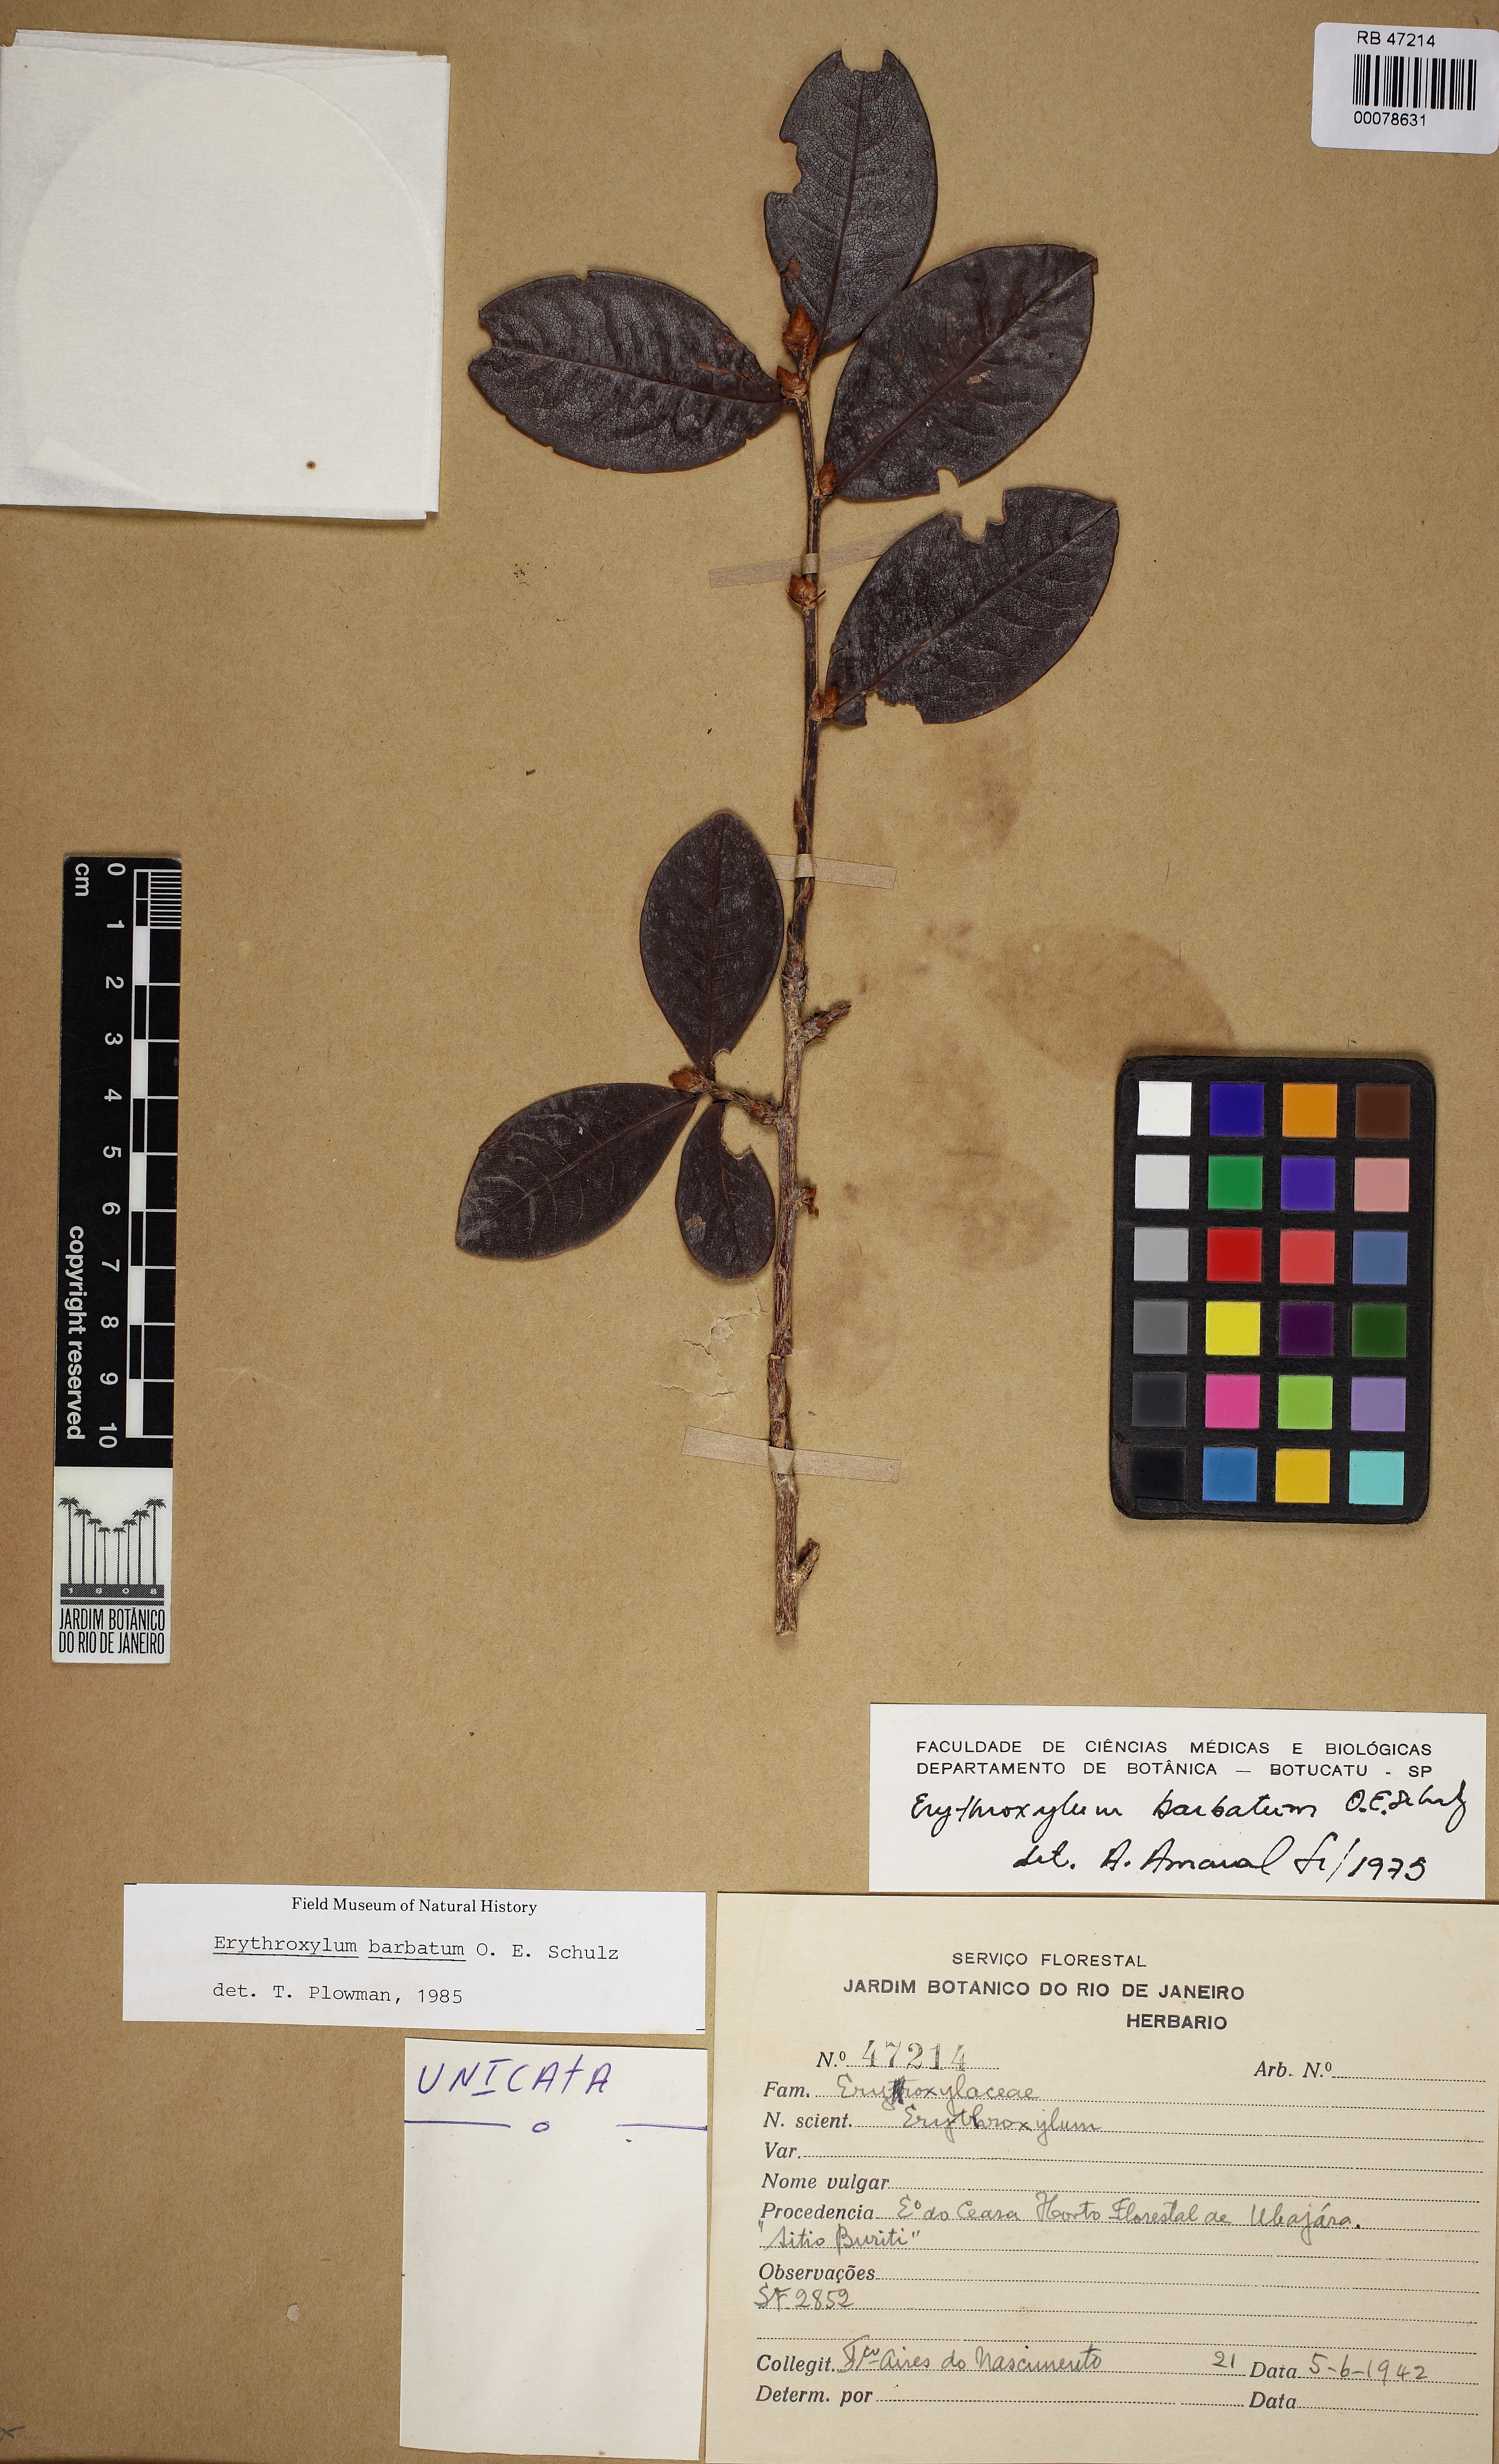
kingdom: Plantae
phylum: Tracheophyta
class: Magnoliopsida
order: Malpighiales
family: Erythroxylaceae
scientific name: Erythroxylaceae
